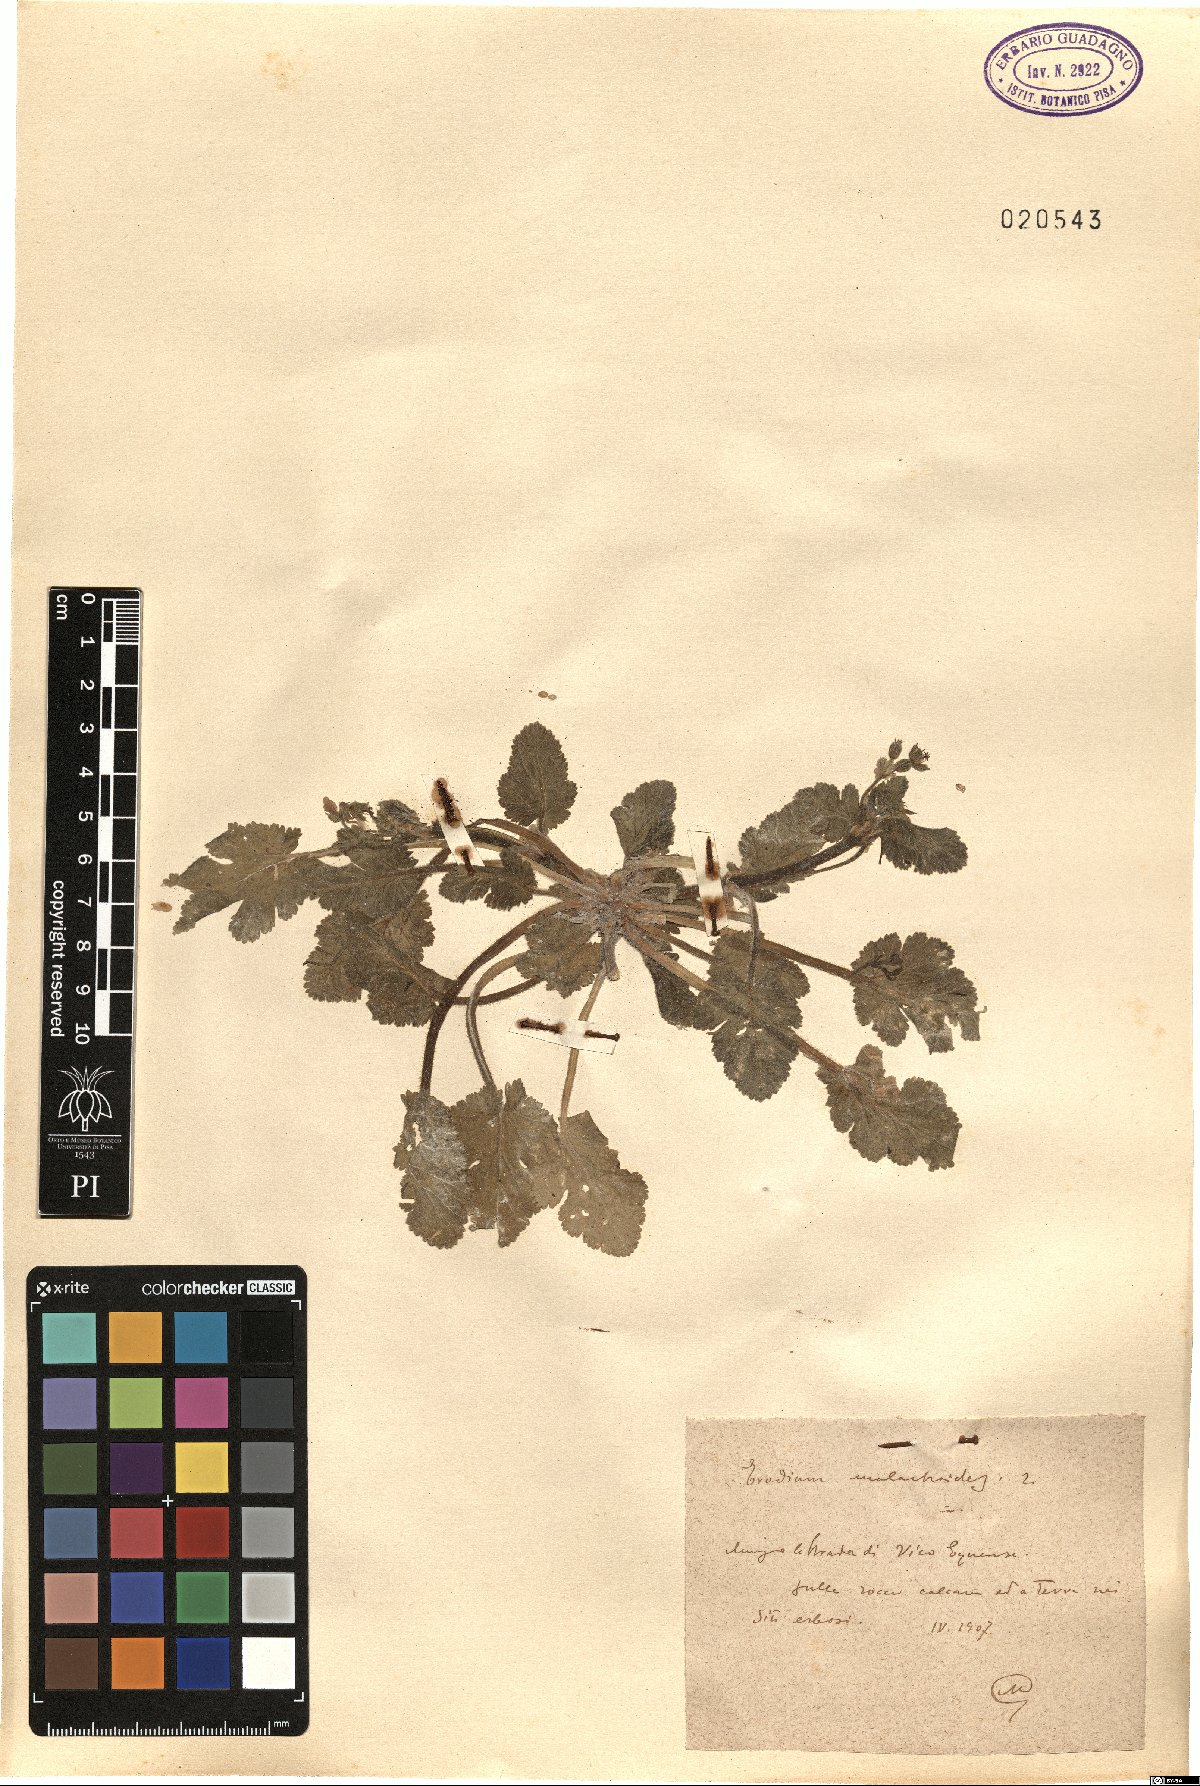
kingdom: Plantae
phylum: Tracheophyta
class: Magnoliopsida
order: Geraniales
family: Geraniaceae
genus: Erodium
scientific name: Erodium malacoides
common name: Soft stork's-bill
